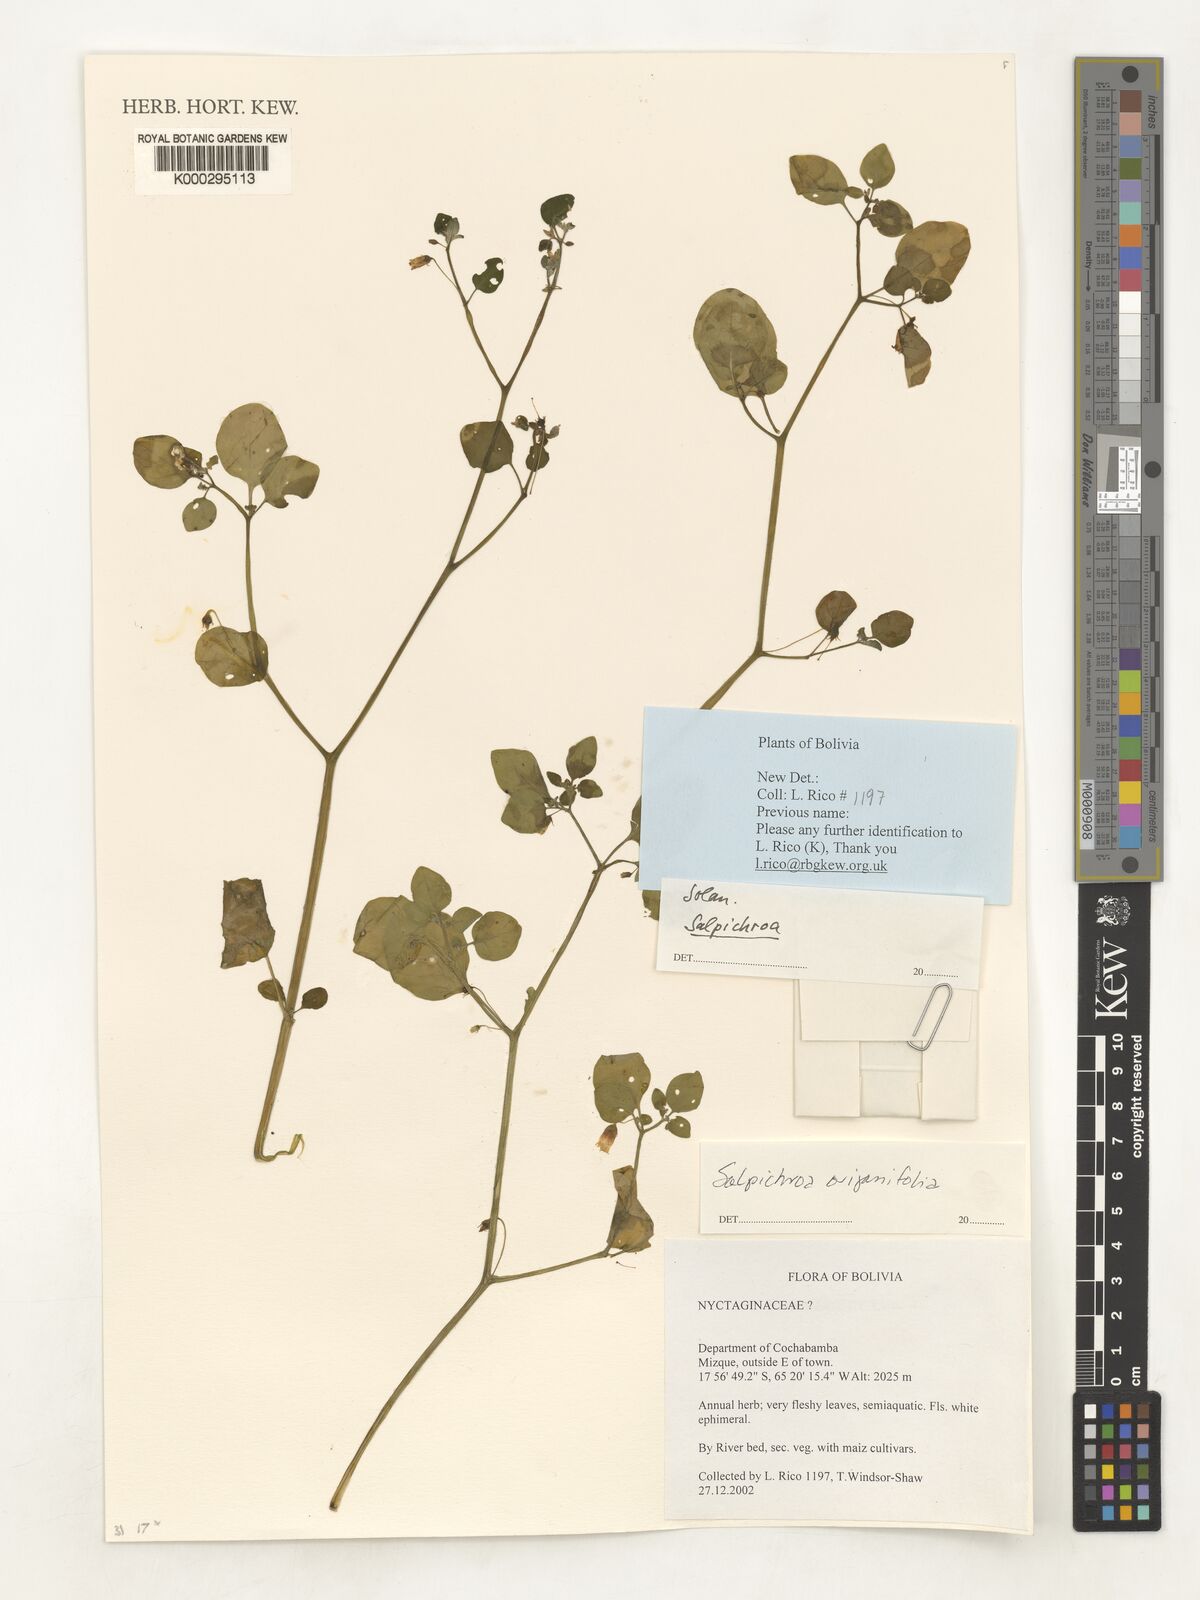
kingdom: Plantae
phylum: Tracheophyta
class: Magnoliopsida
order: Solanales
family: Solanaceae
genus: Salpichroa
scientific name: Salpichroa origanifolia
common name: Lily-of-the-valley-vine
